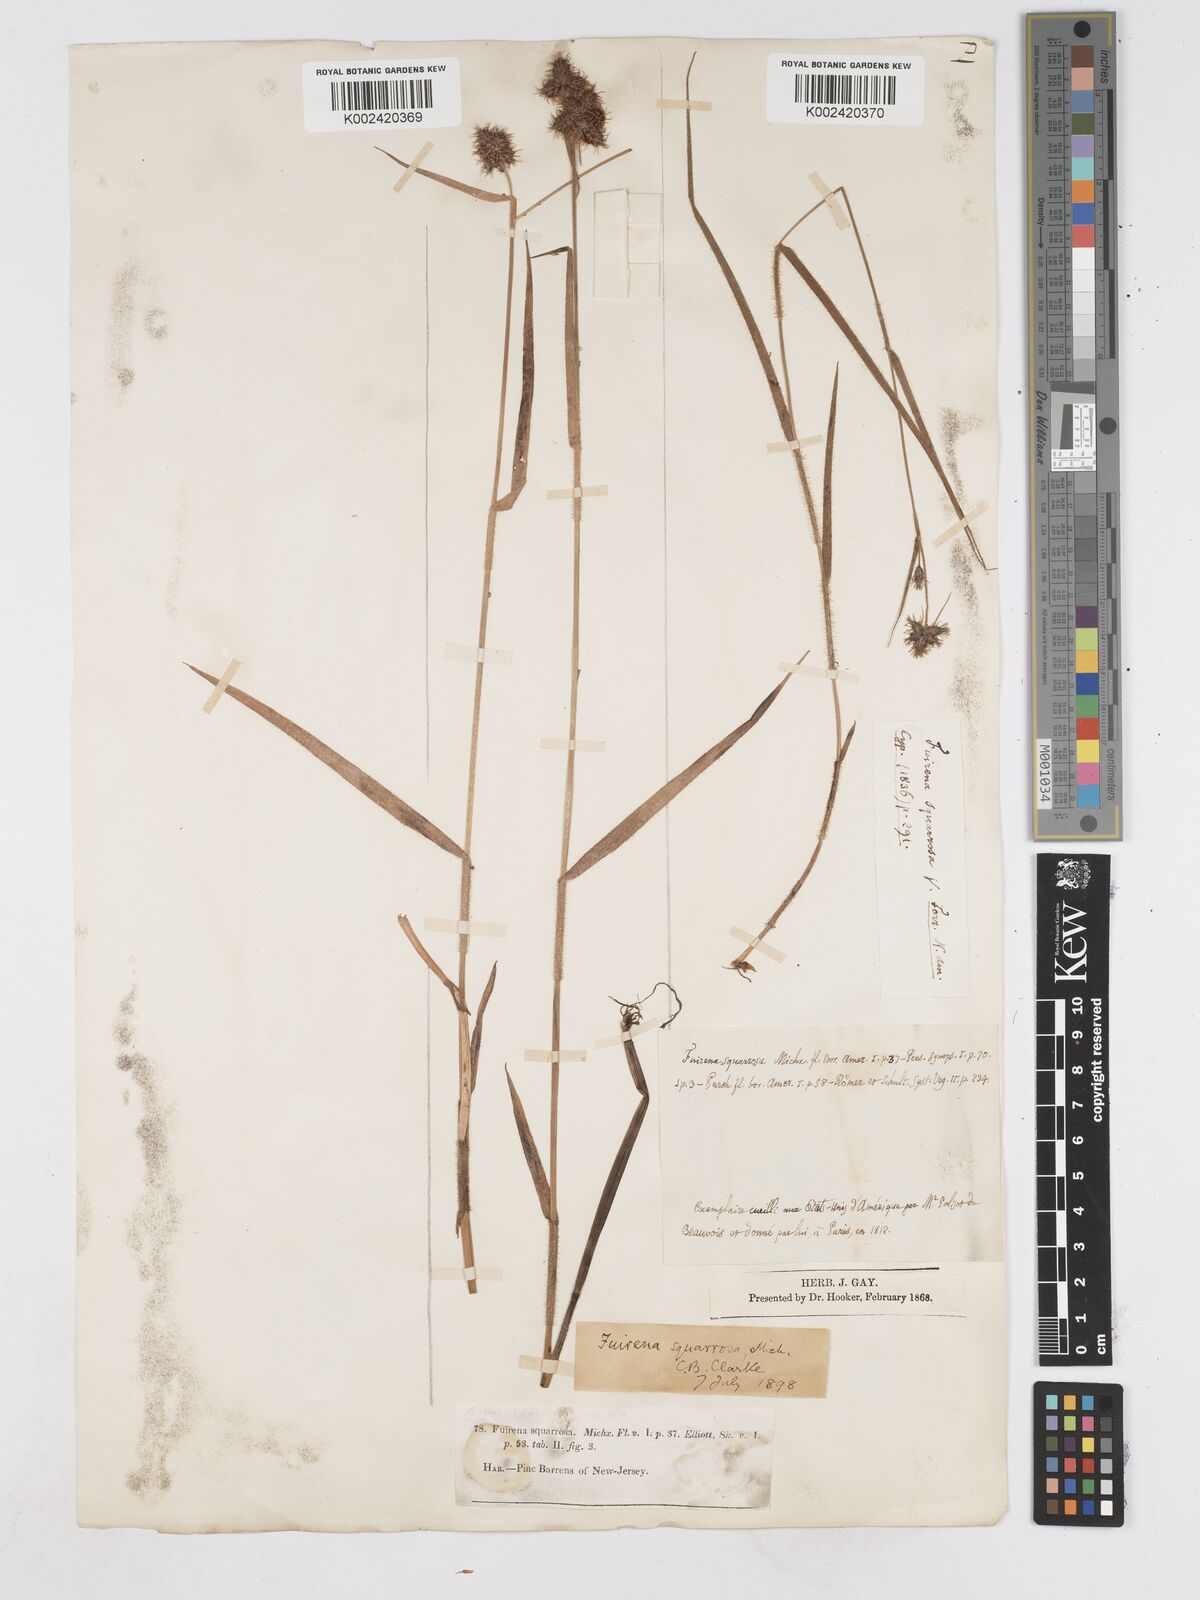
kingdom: Plantae
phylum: Tracheophyta
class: Liliopsida
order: Poales
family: Cyperaceae
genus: Fuirena
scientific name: Fuirena squarrosa
